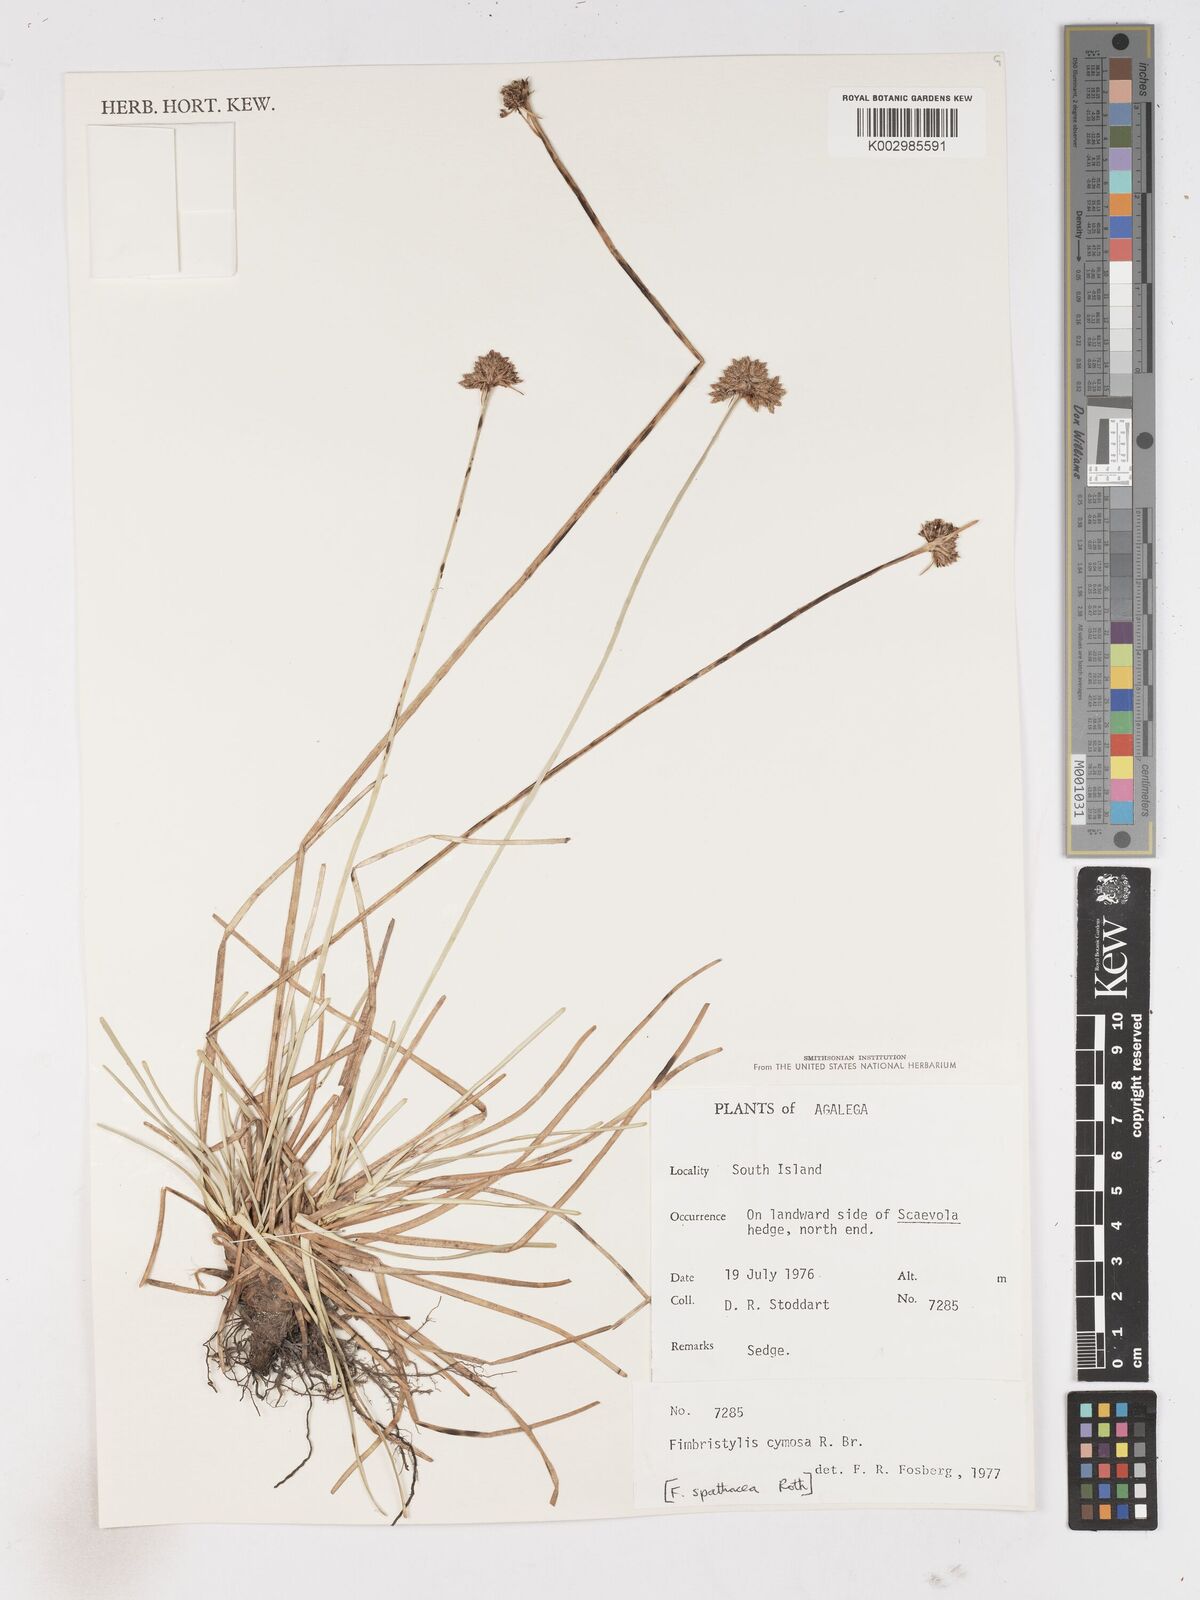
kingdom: Plantae
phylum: Tracheophyta
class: Liliopsida
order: Poales
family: Cyperaceae
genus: Fimbristylis
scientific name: Fimbristylis cymosa
